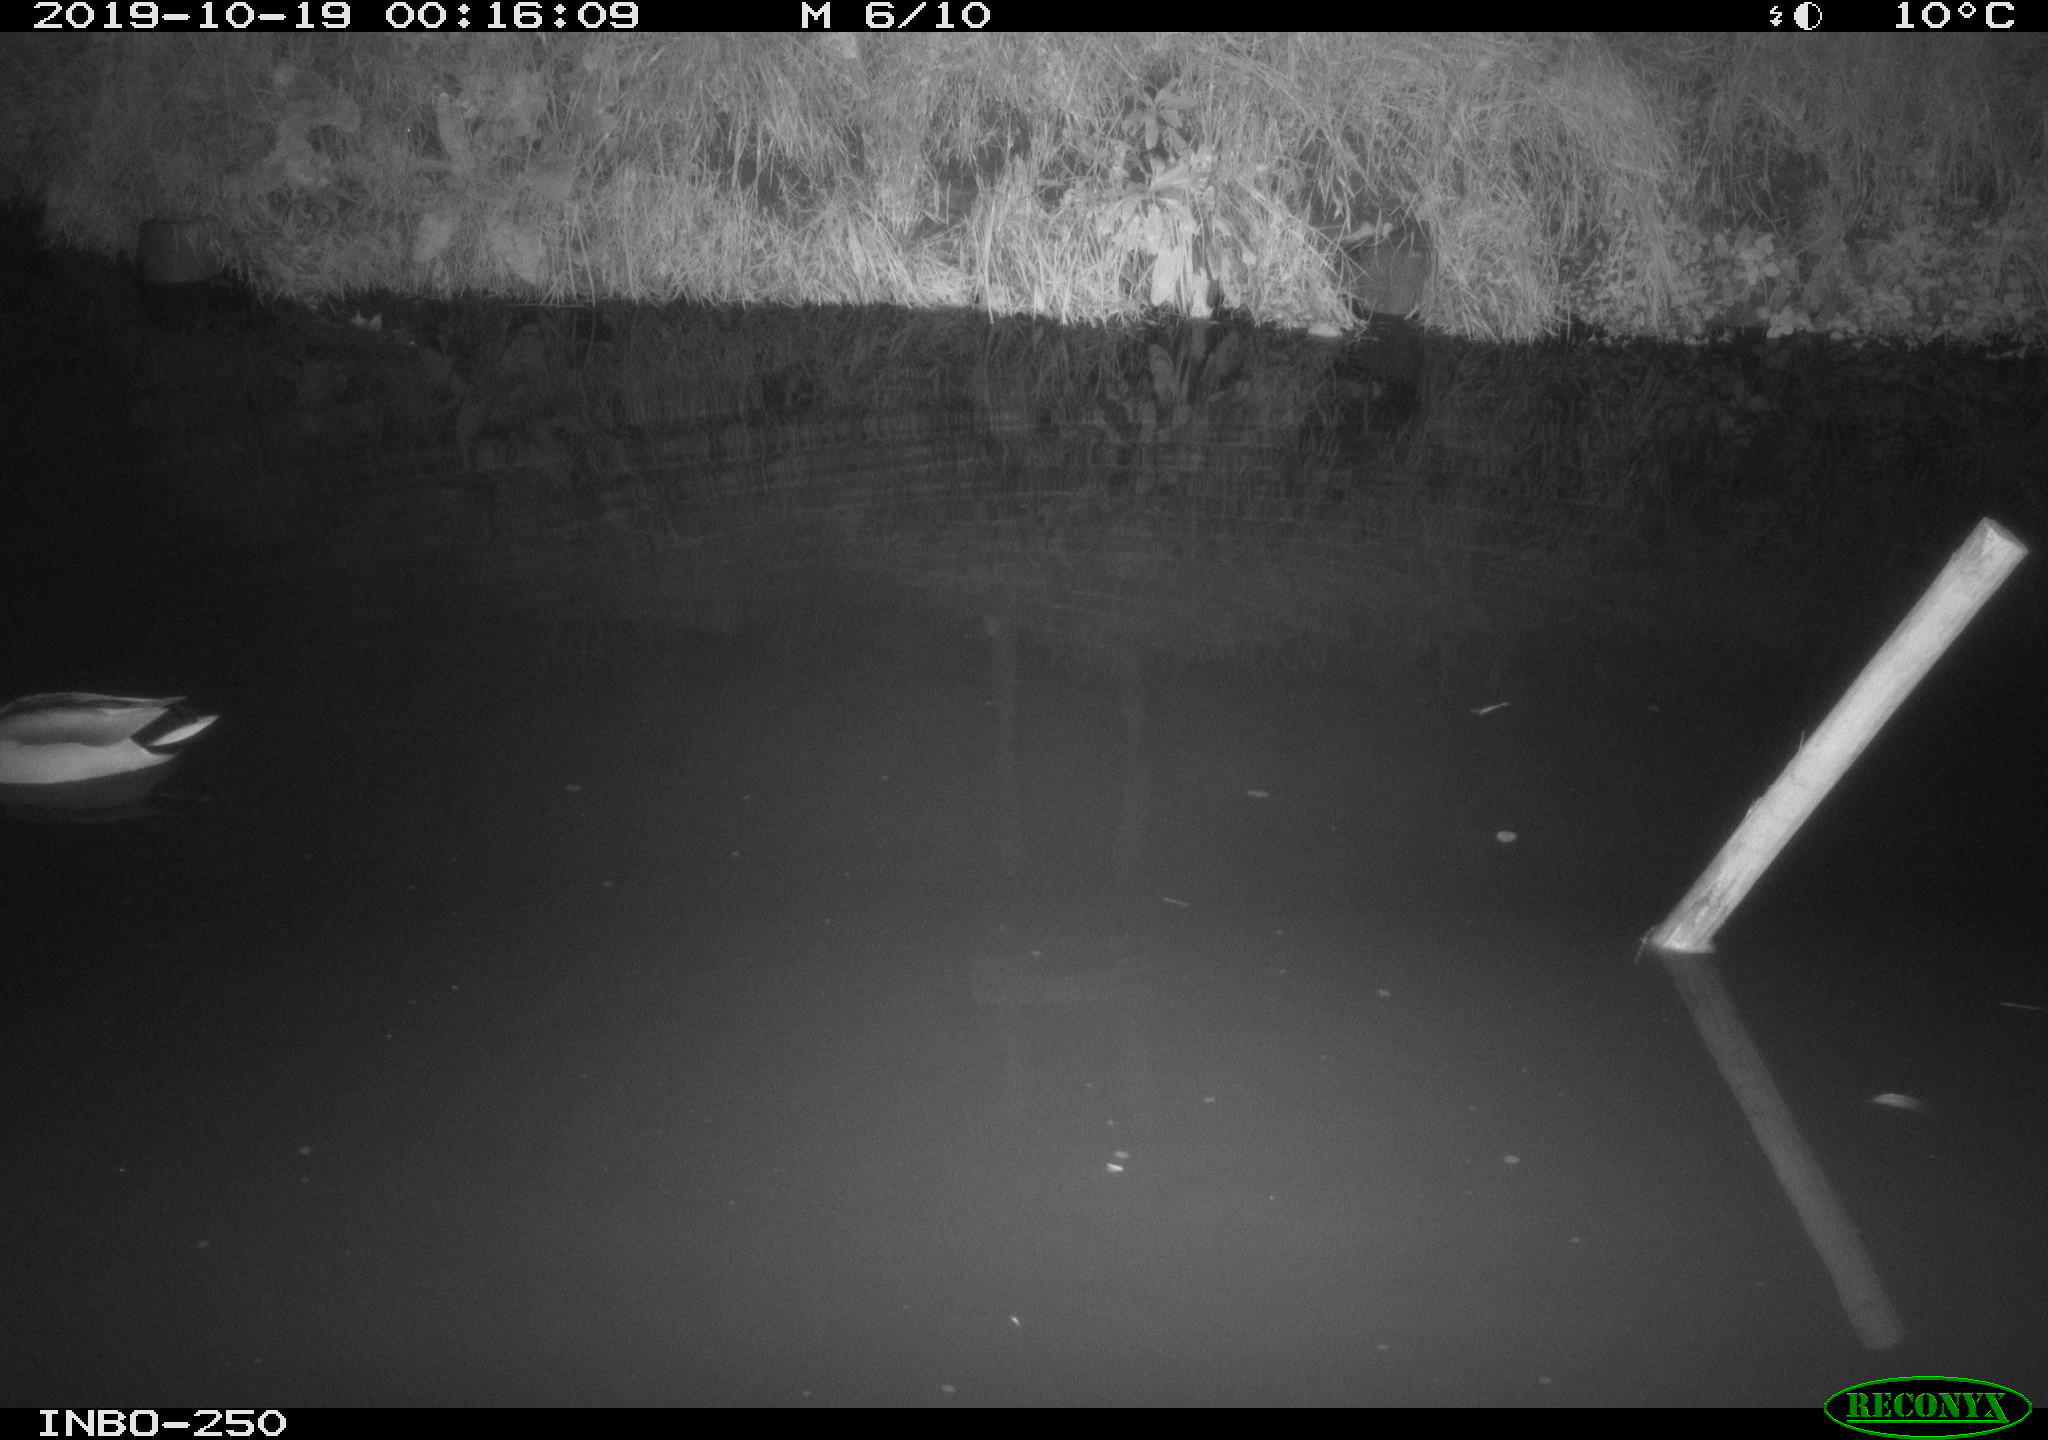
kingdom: Animalia
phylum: Chordata
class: Aves
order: Anseriformes
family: Anatidae
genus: Anas
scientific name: Anas platyrhynchos
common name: Mallard
